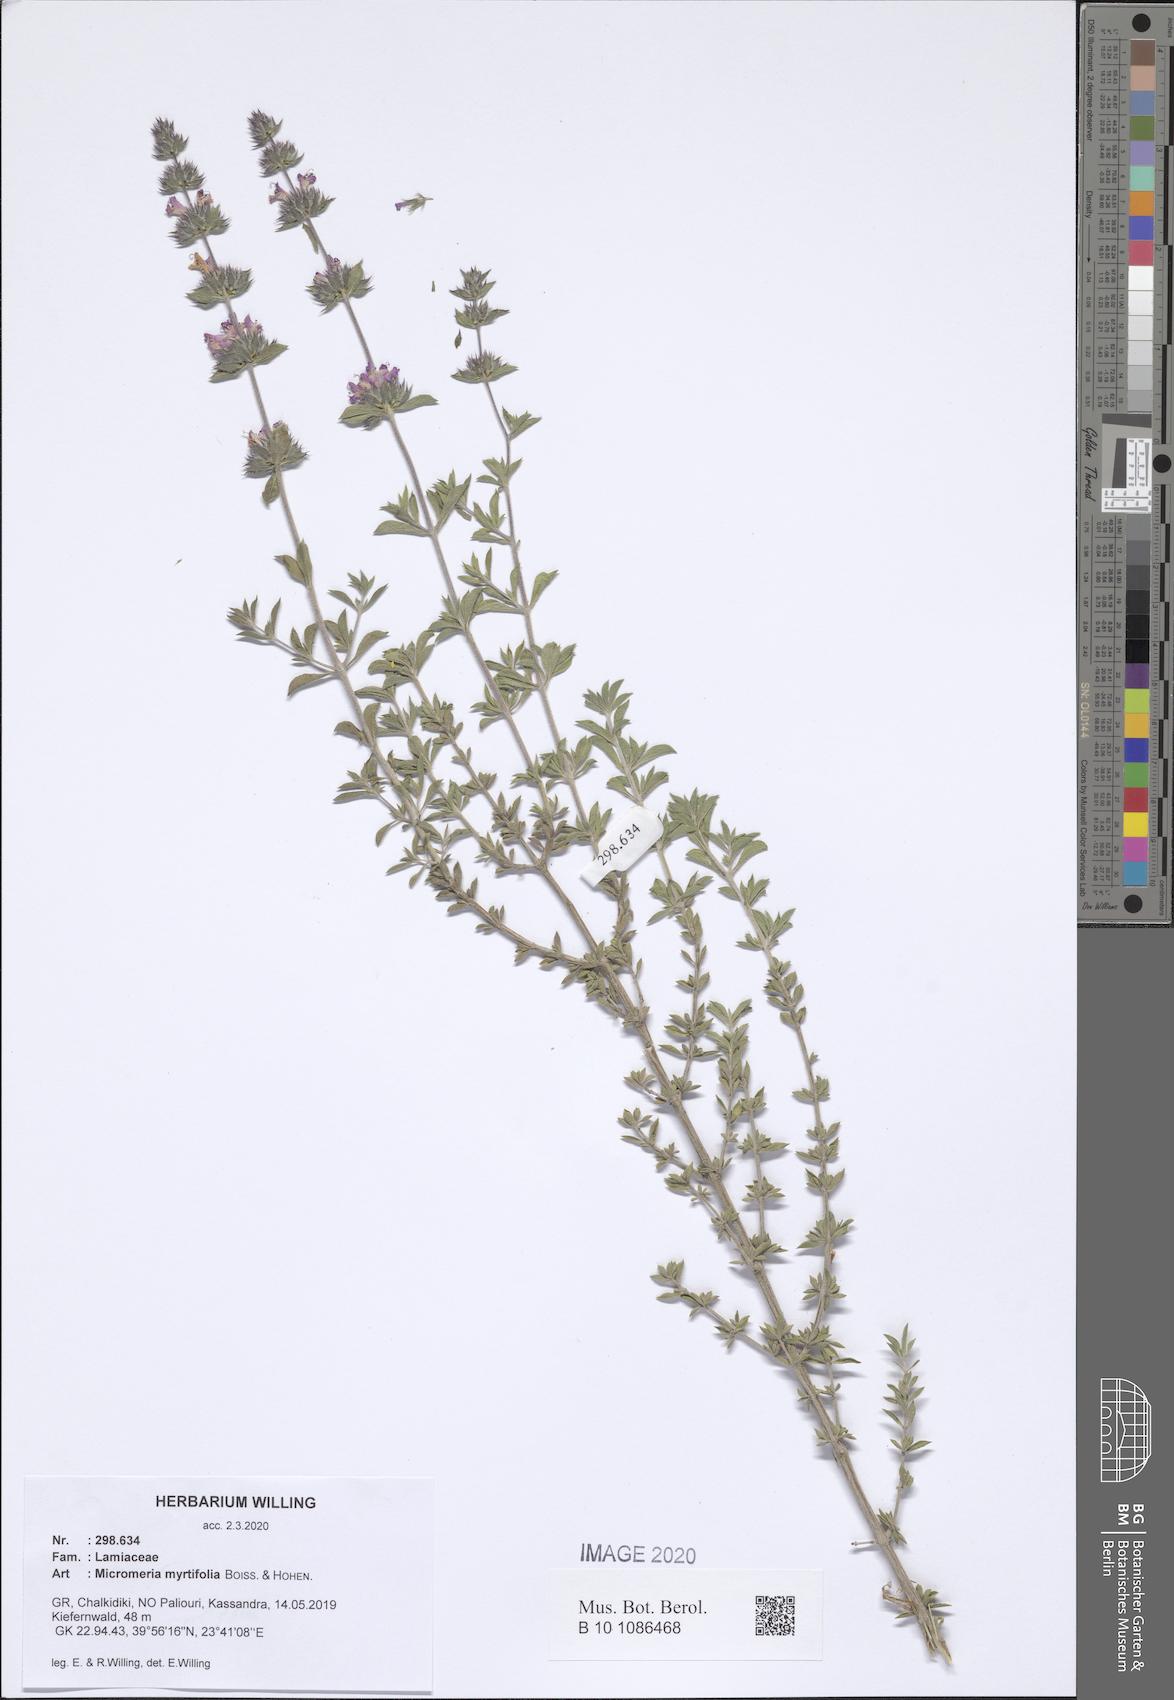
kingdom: Plantae
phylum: Tracheophyta
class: Magnoliopsida
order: Lamiales
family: Lamiaceae
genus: Micromeria
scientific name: Micromeria myrtifolia
